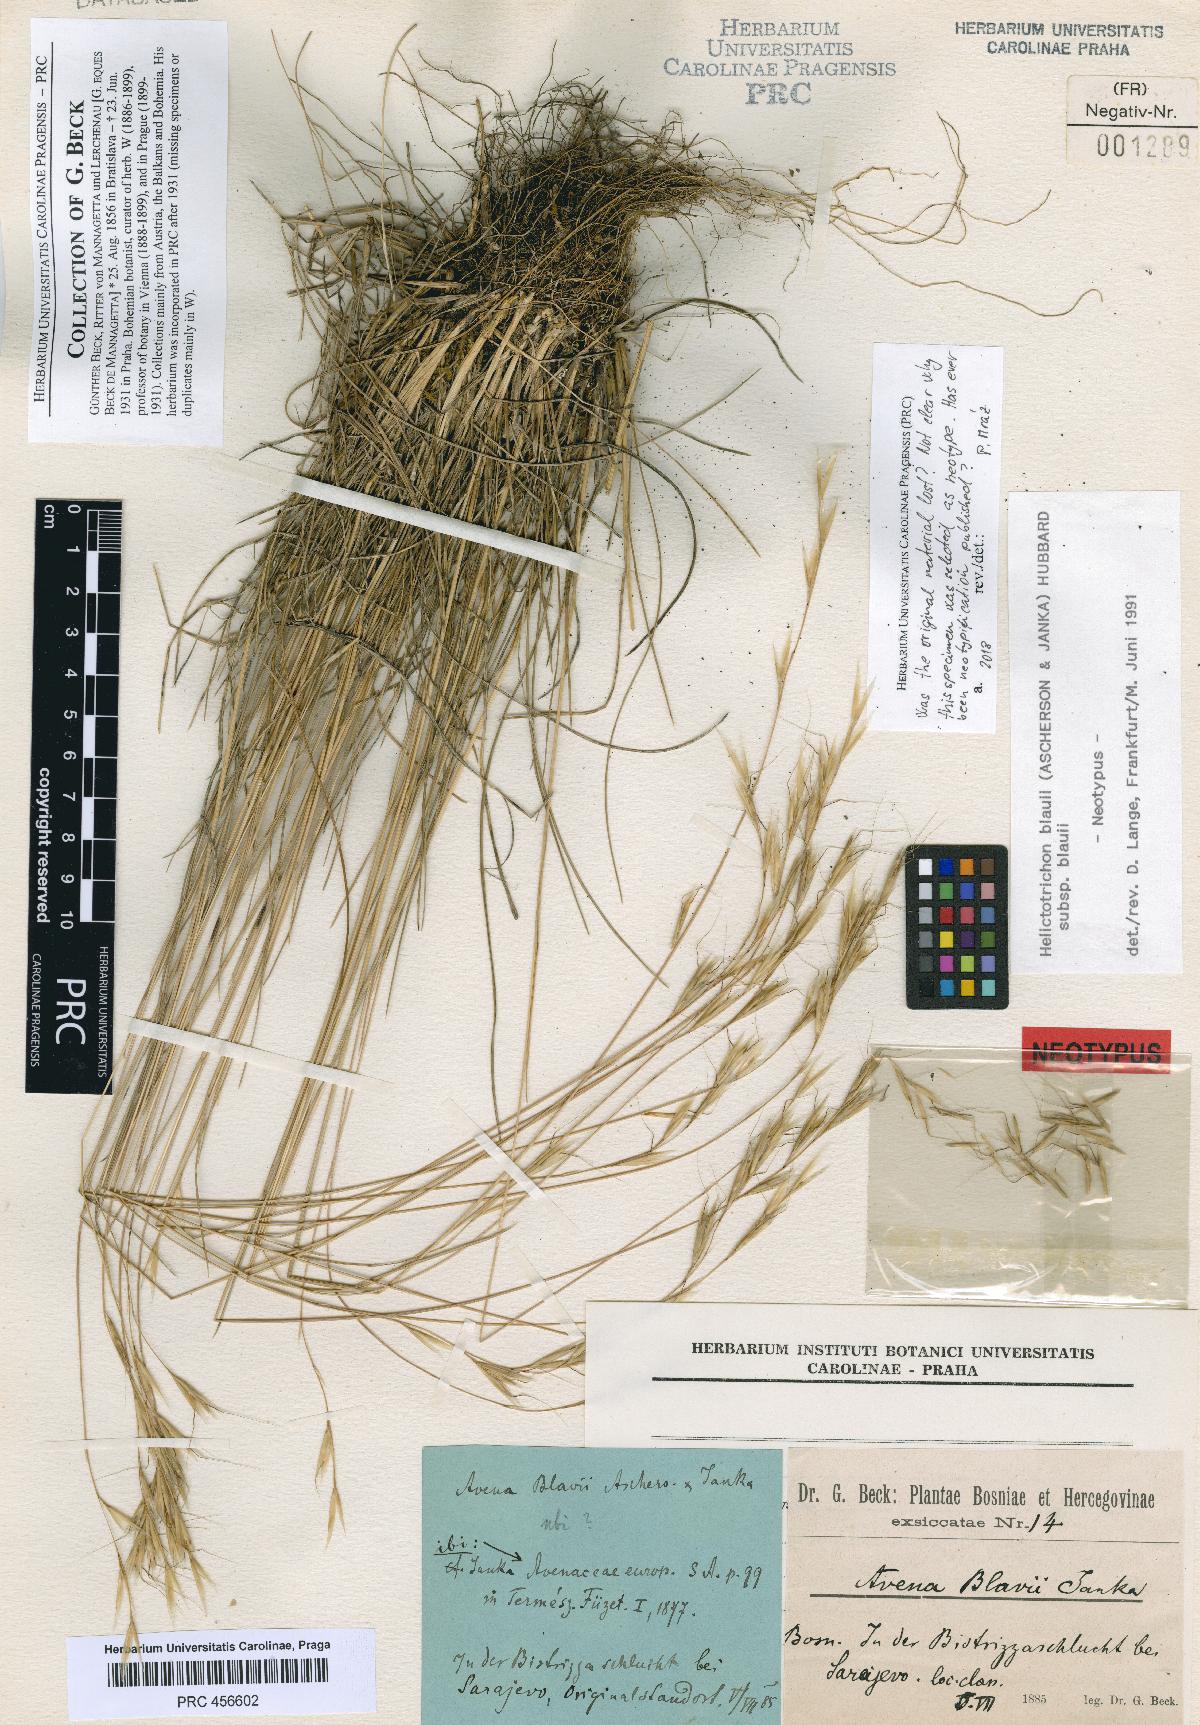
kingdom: Plantae
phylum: Tracheophyta
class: Liliopsida
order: Poales
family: Poaceae
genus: Helictochloa
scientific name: Helictochloa blaui
